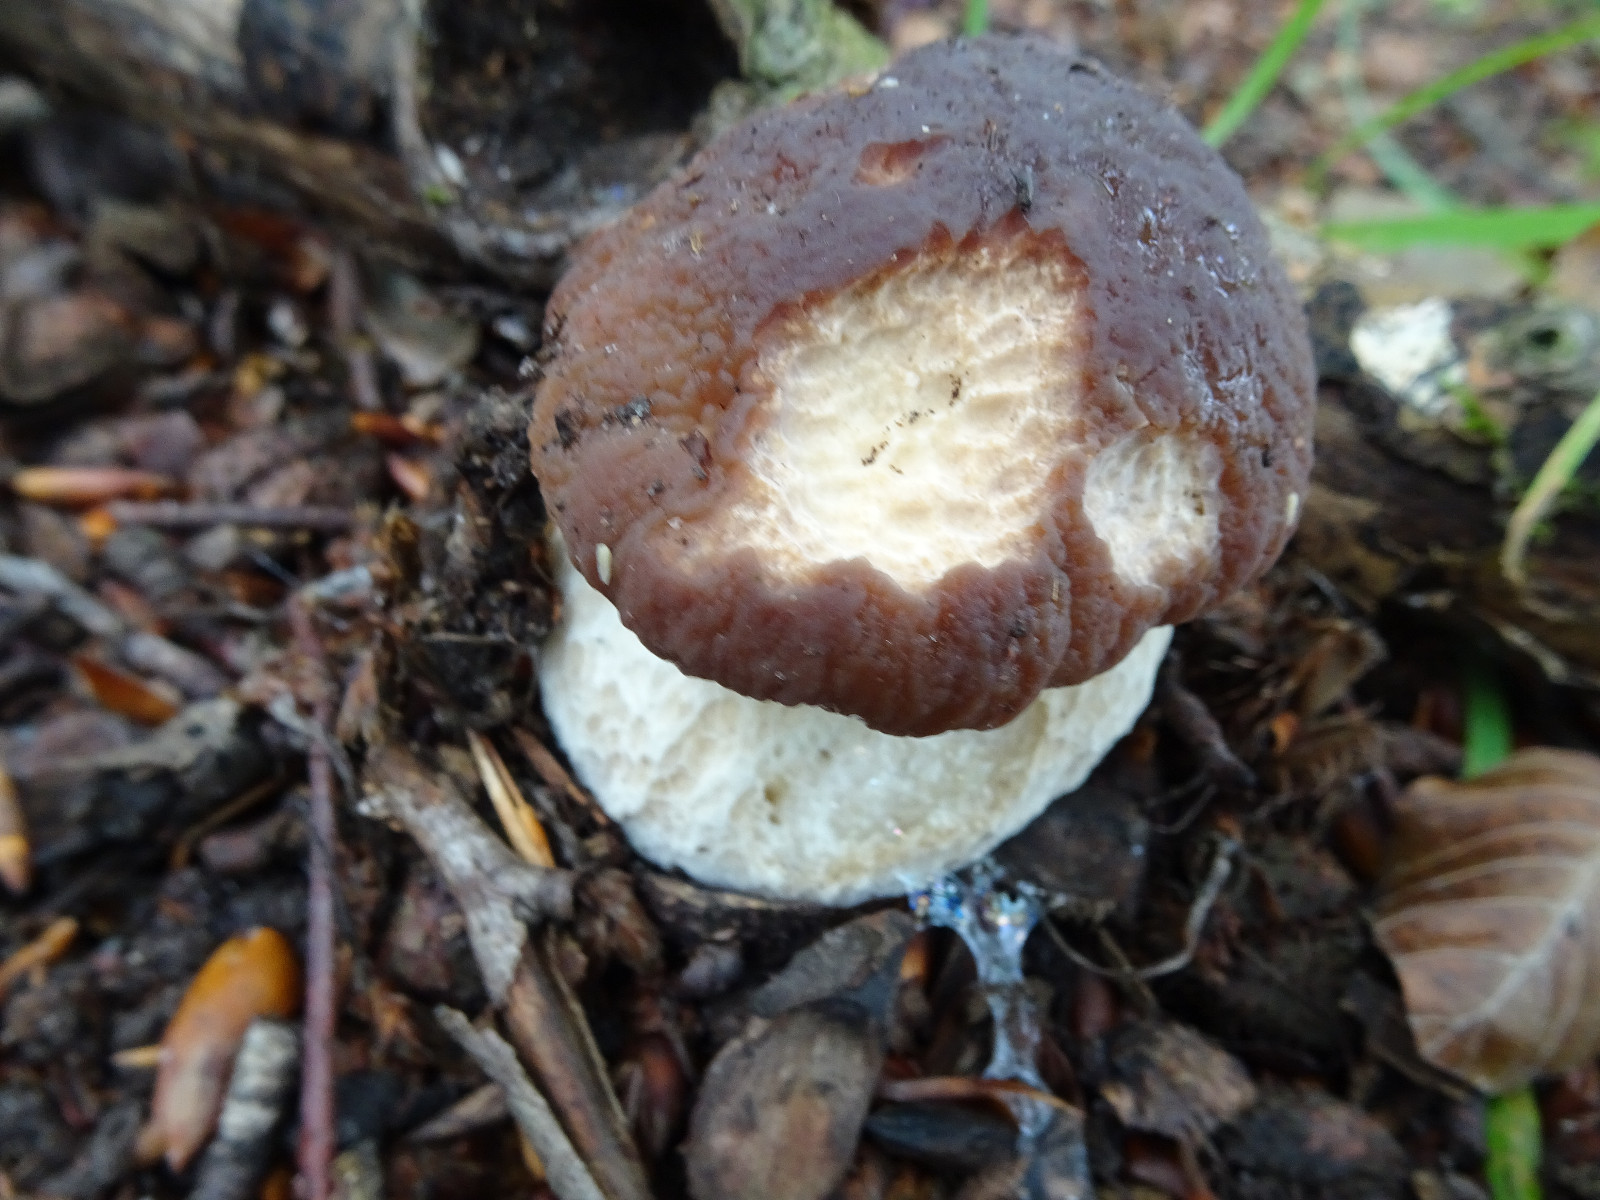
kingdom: Fungi
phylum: Basidiomycota
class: Agaricomycetes
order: Boletales
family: Boletaceae
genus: Boletus
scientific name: Boletus edulis
